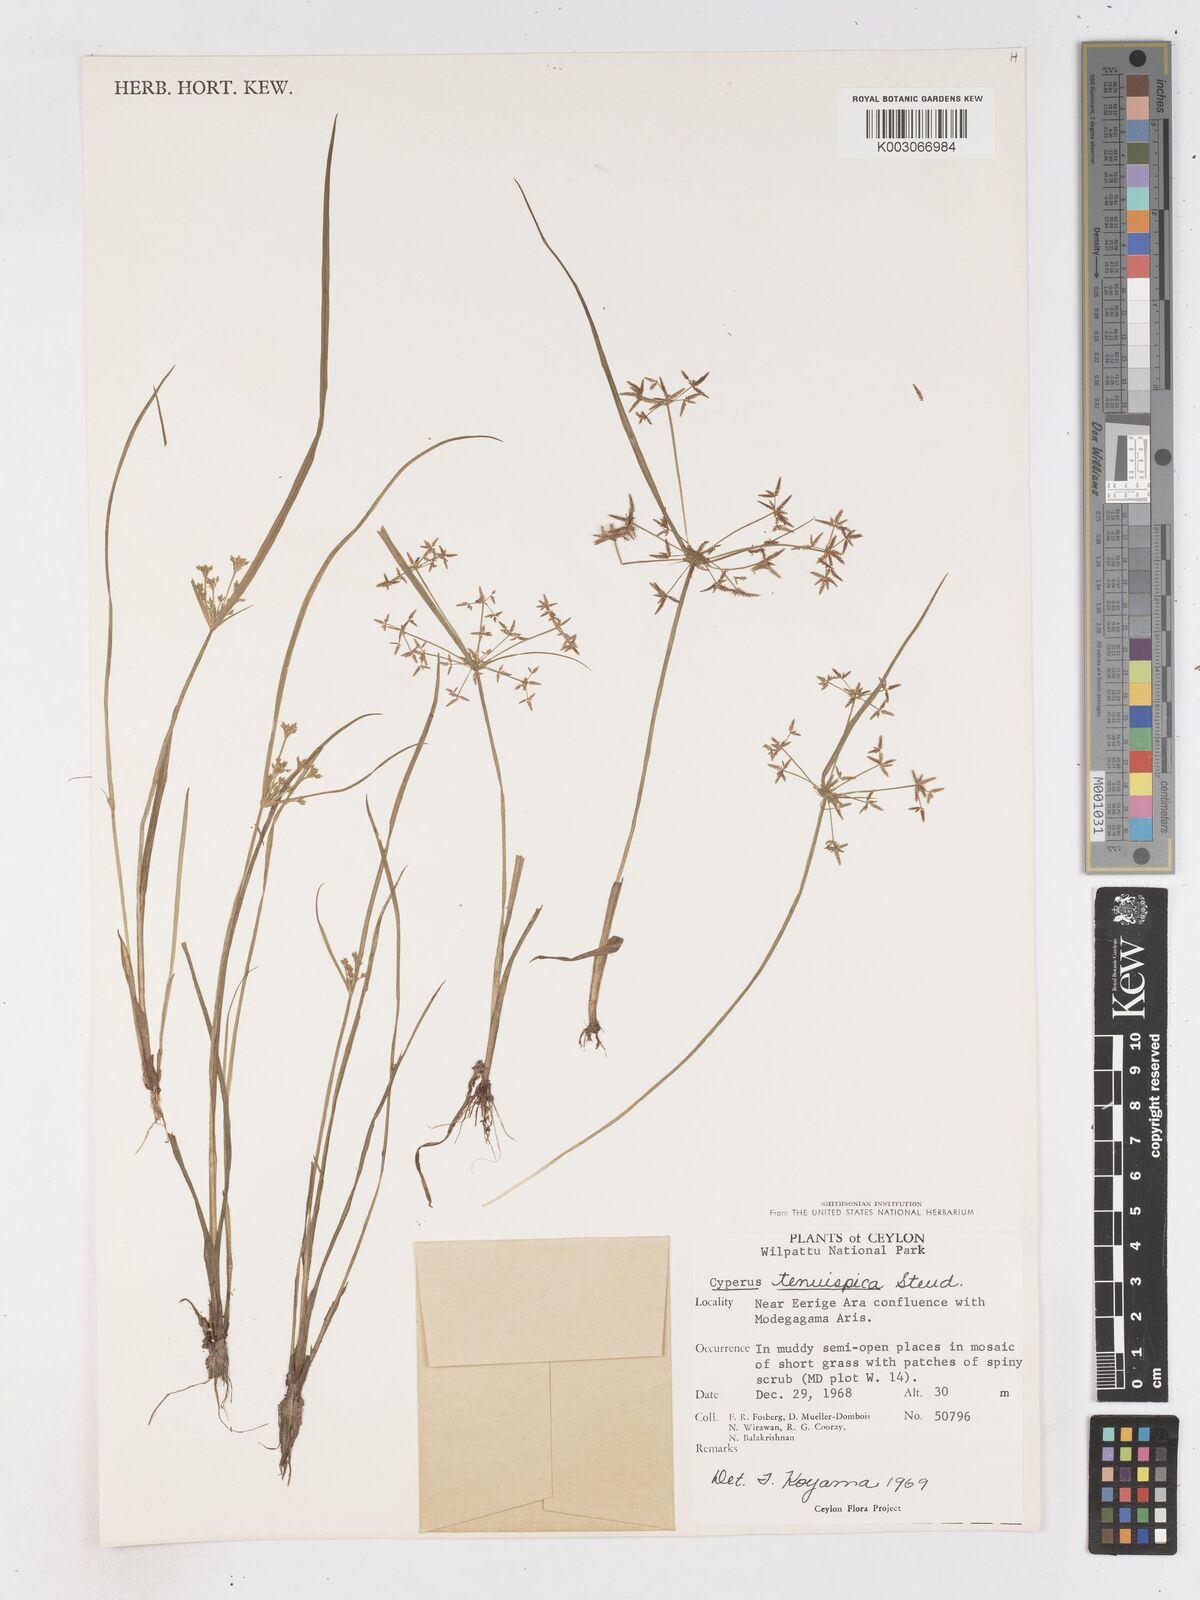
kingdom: Plantae
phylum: Tracheophyta
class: Liliopsida
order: Poales
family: Cyperaceae
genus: Cyperus
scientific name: Cyperus tenuispica
